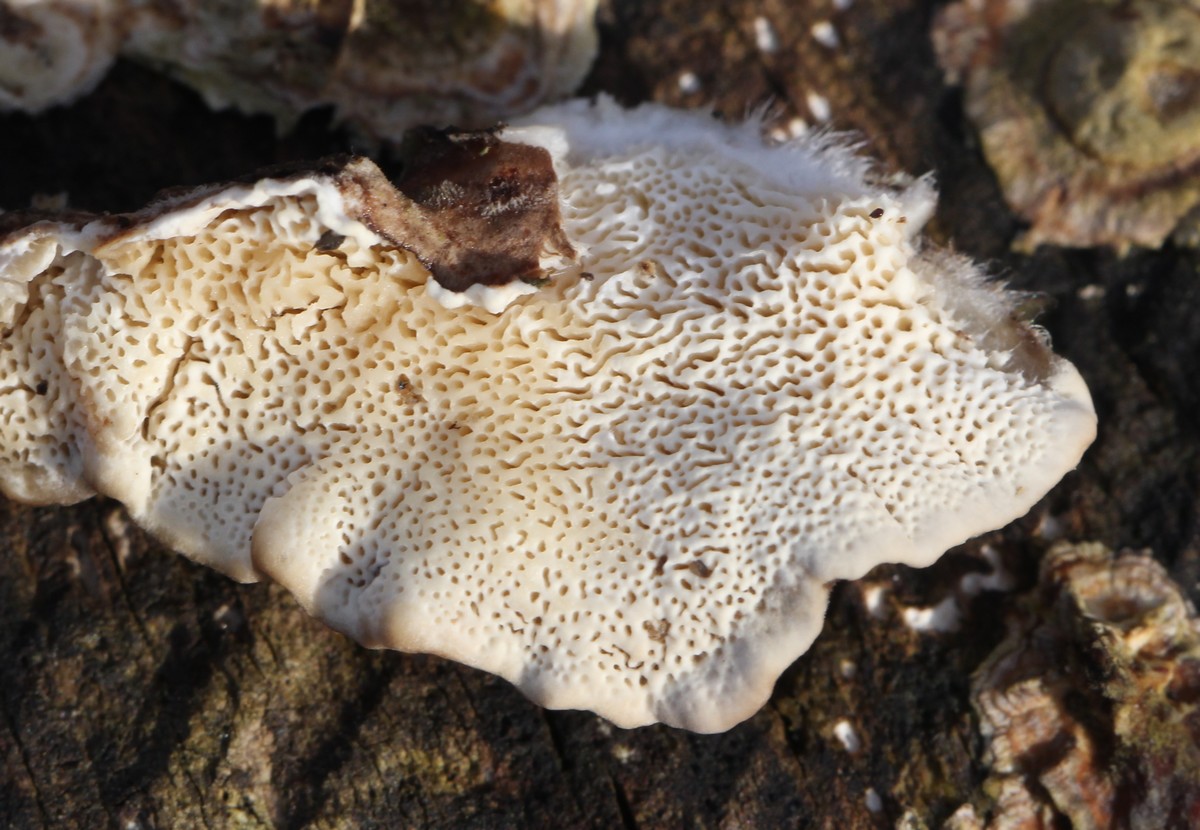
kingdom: Fungi
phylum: Basidiomycota
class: Agaricomycetes
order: Polyporales
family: Polyporaceae
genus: Trametes
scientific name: Trametes versicolor
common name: broget læderporesvamp
